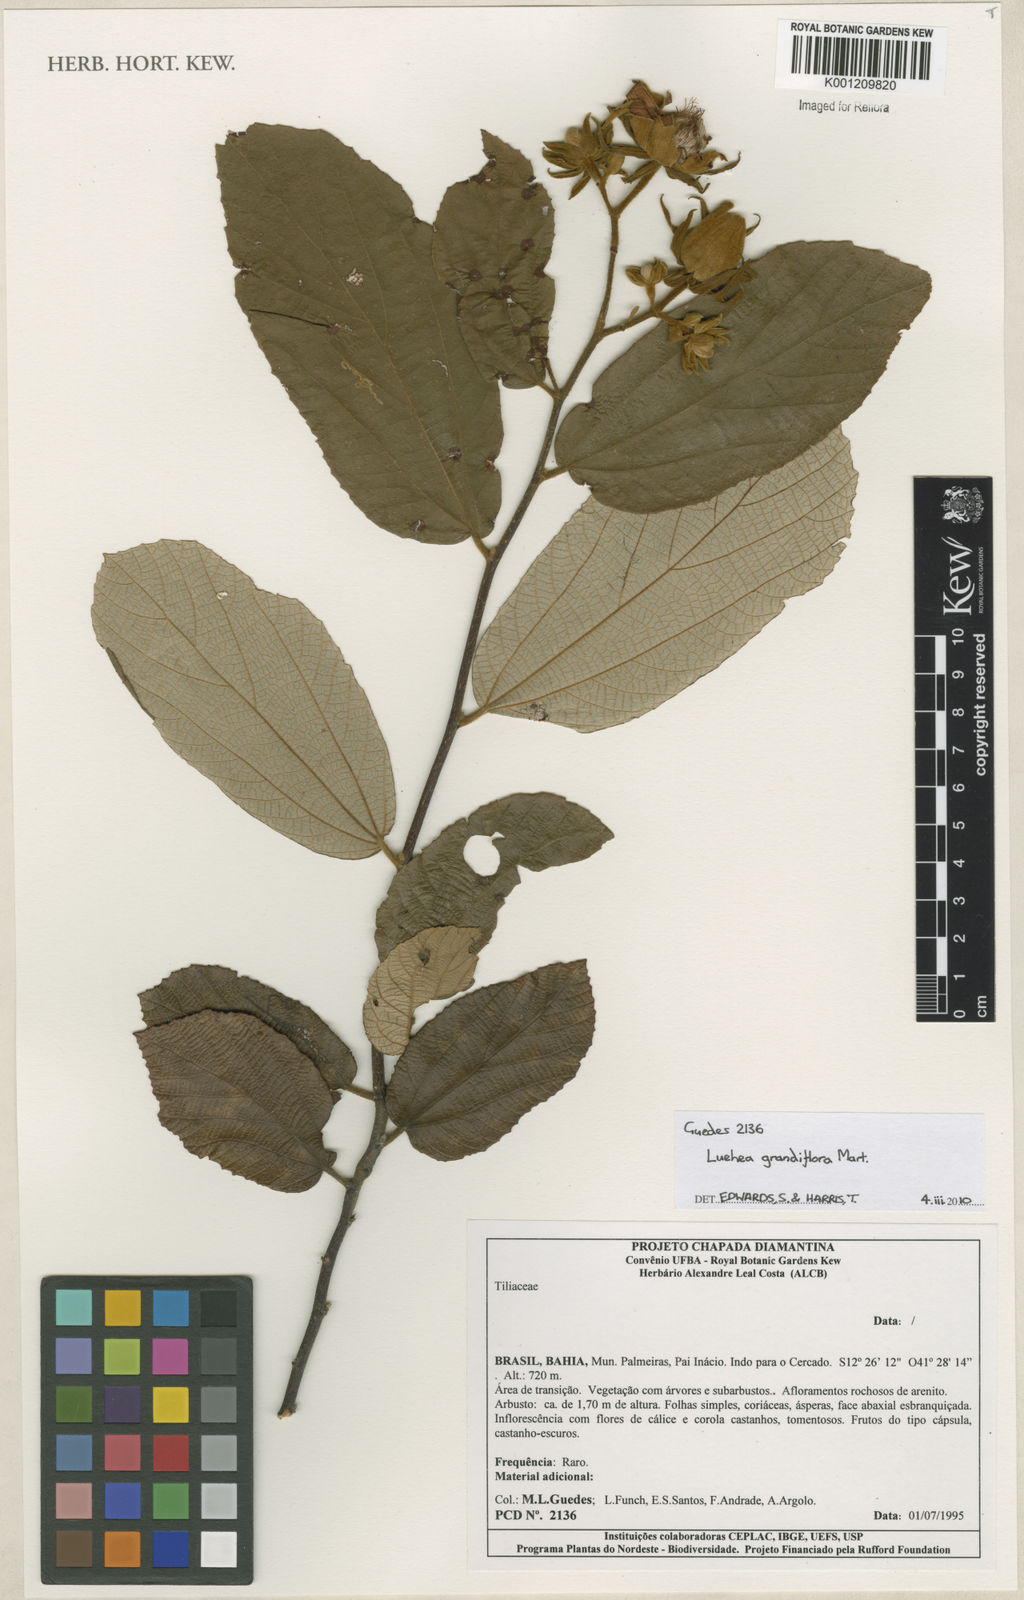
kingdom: Plantae
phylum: Tracheophyta
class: Magnoliopsida
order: Malvales
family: Malvaceae
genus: Luehea
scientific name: Luehea grandiflora
